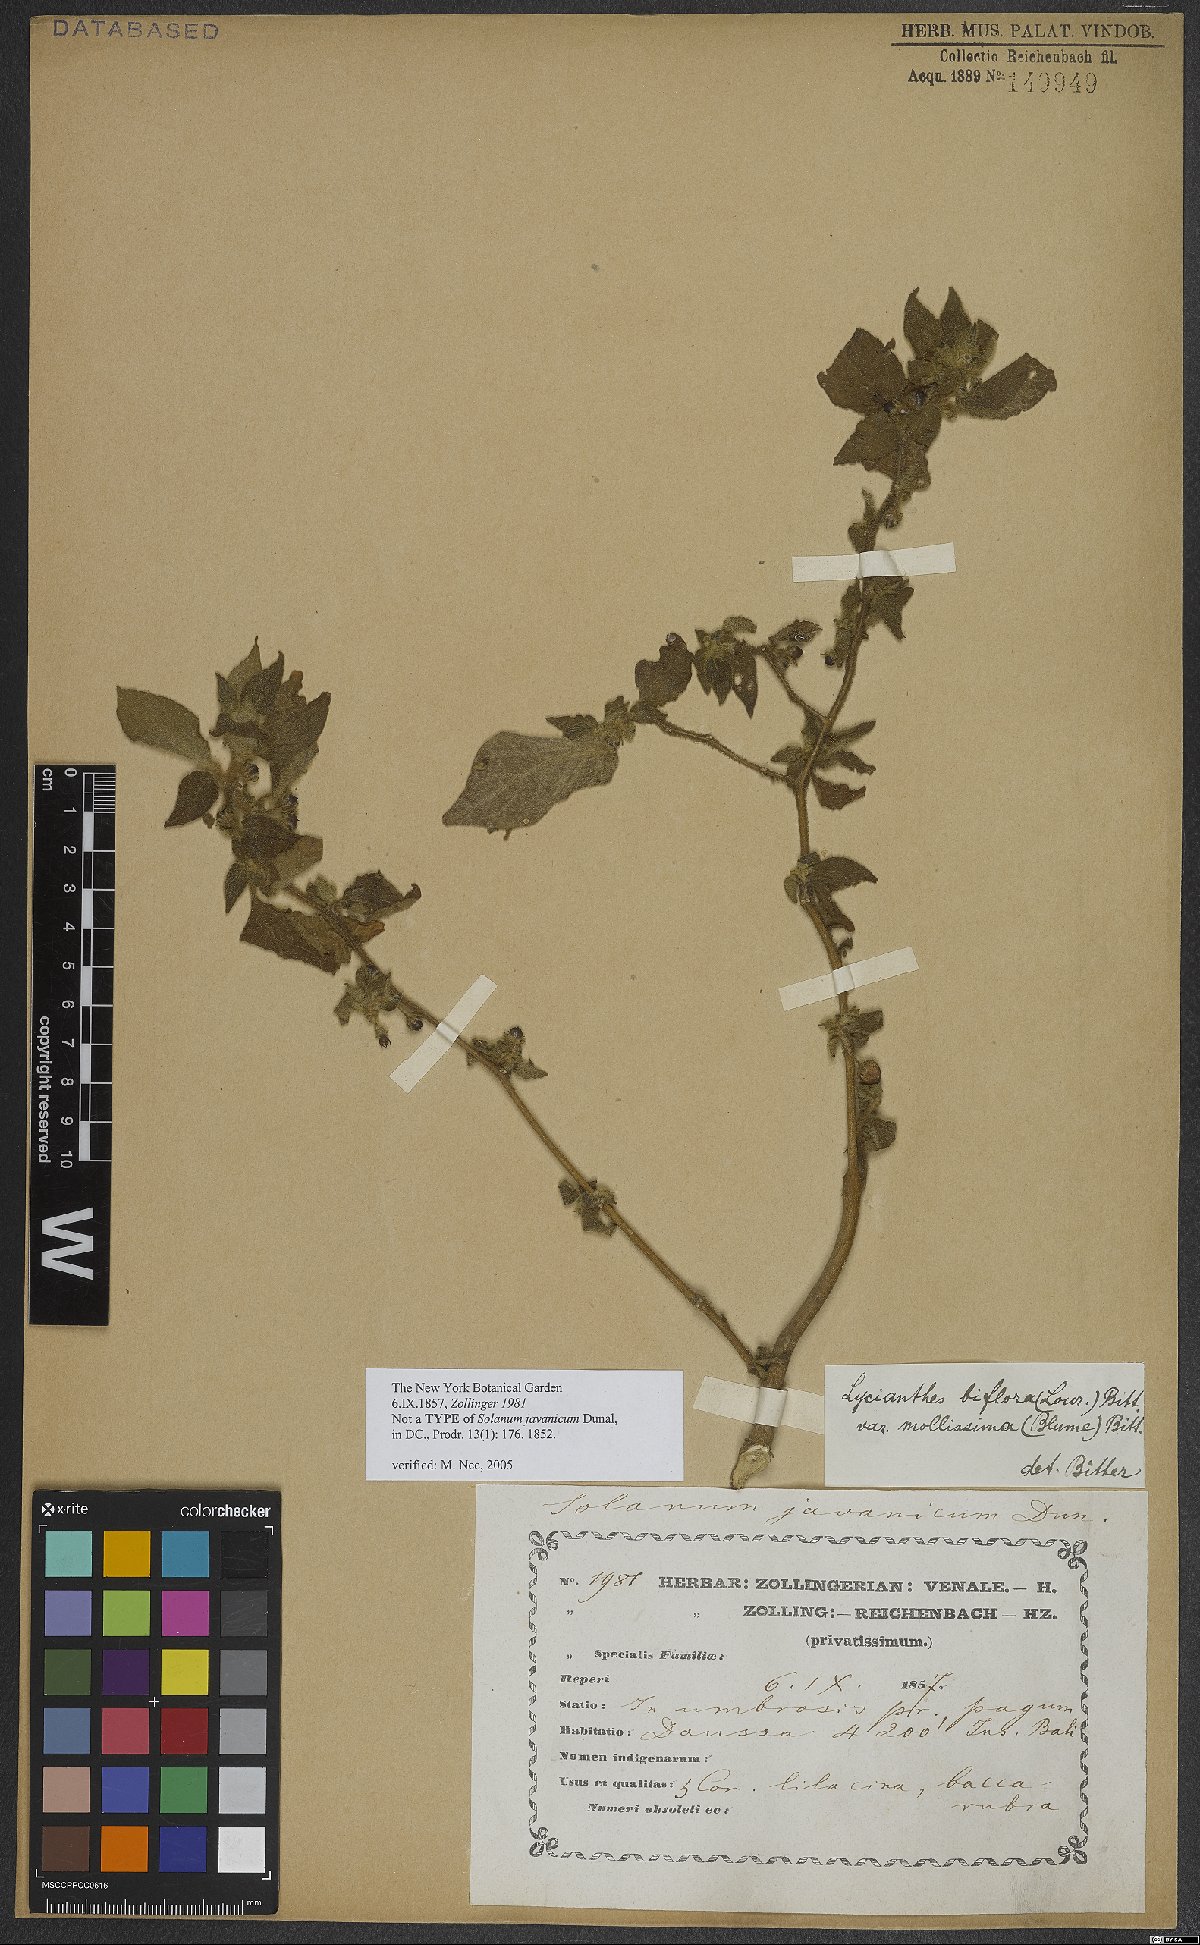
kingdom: Plantae
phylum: Tracheophyta
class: Magnoliopsida
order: Solanales
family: Solanaceae
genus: Lycianthes
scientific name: Lycianthes biflora
